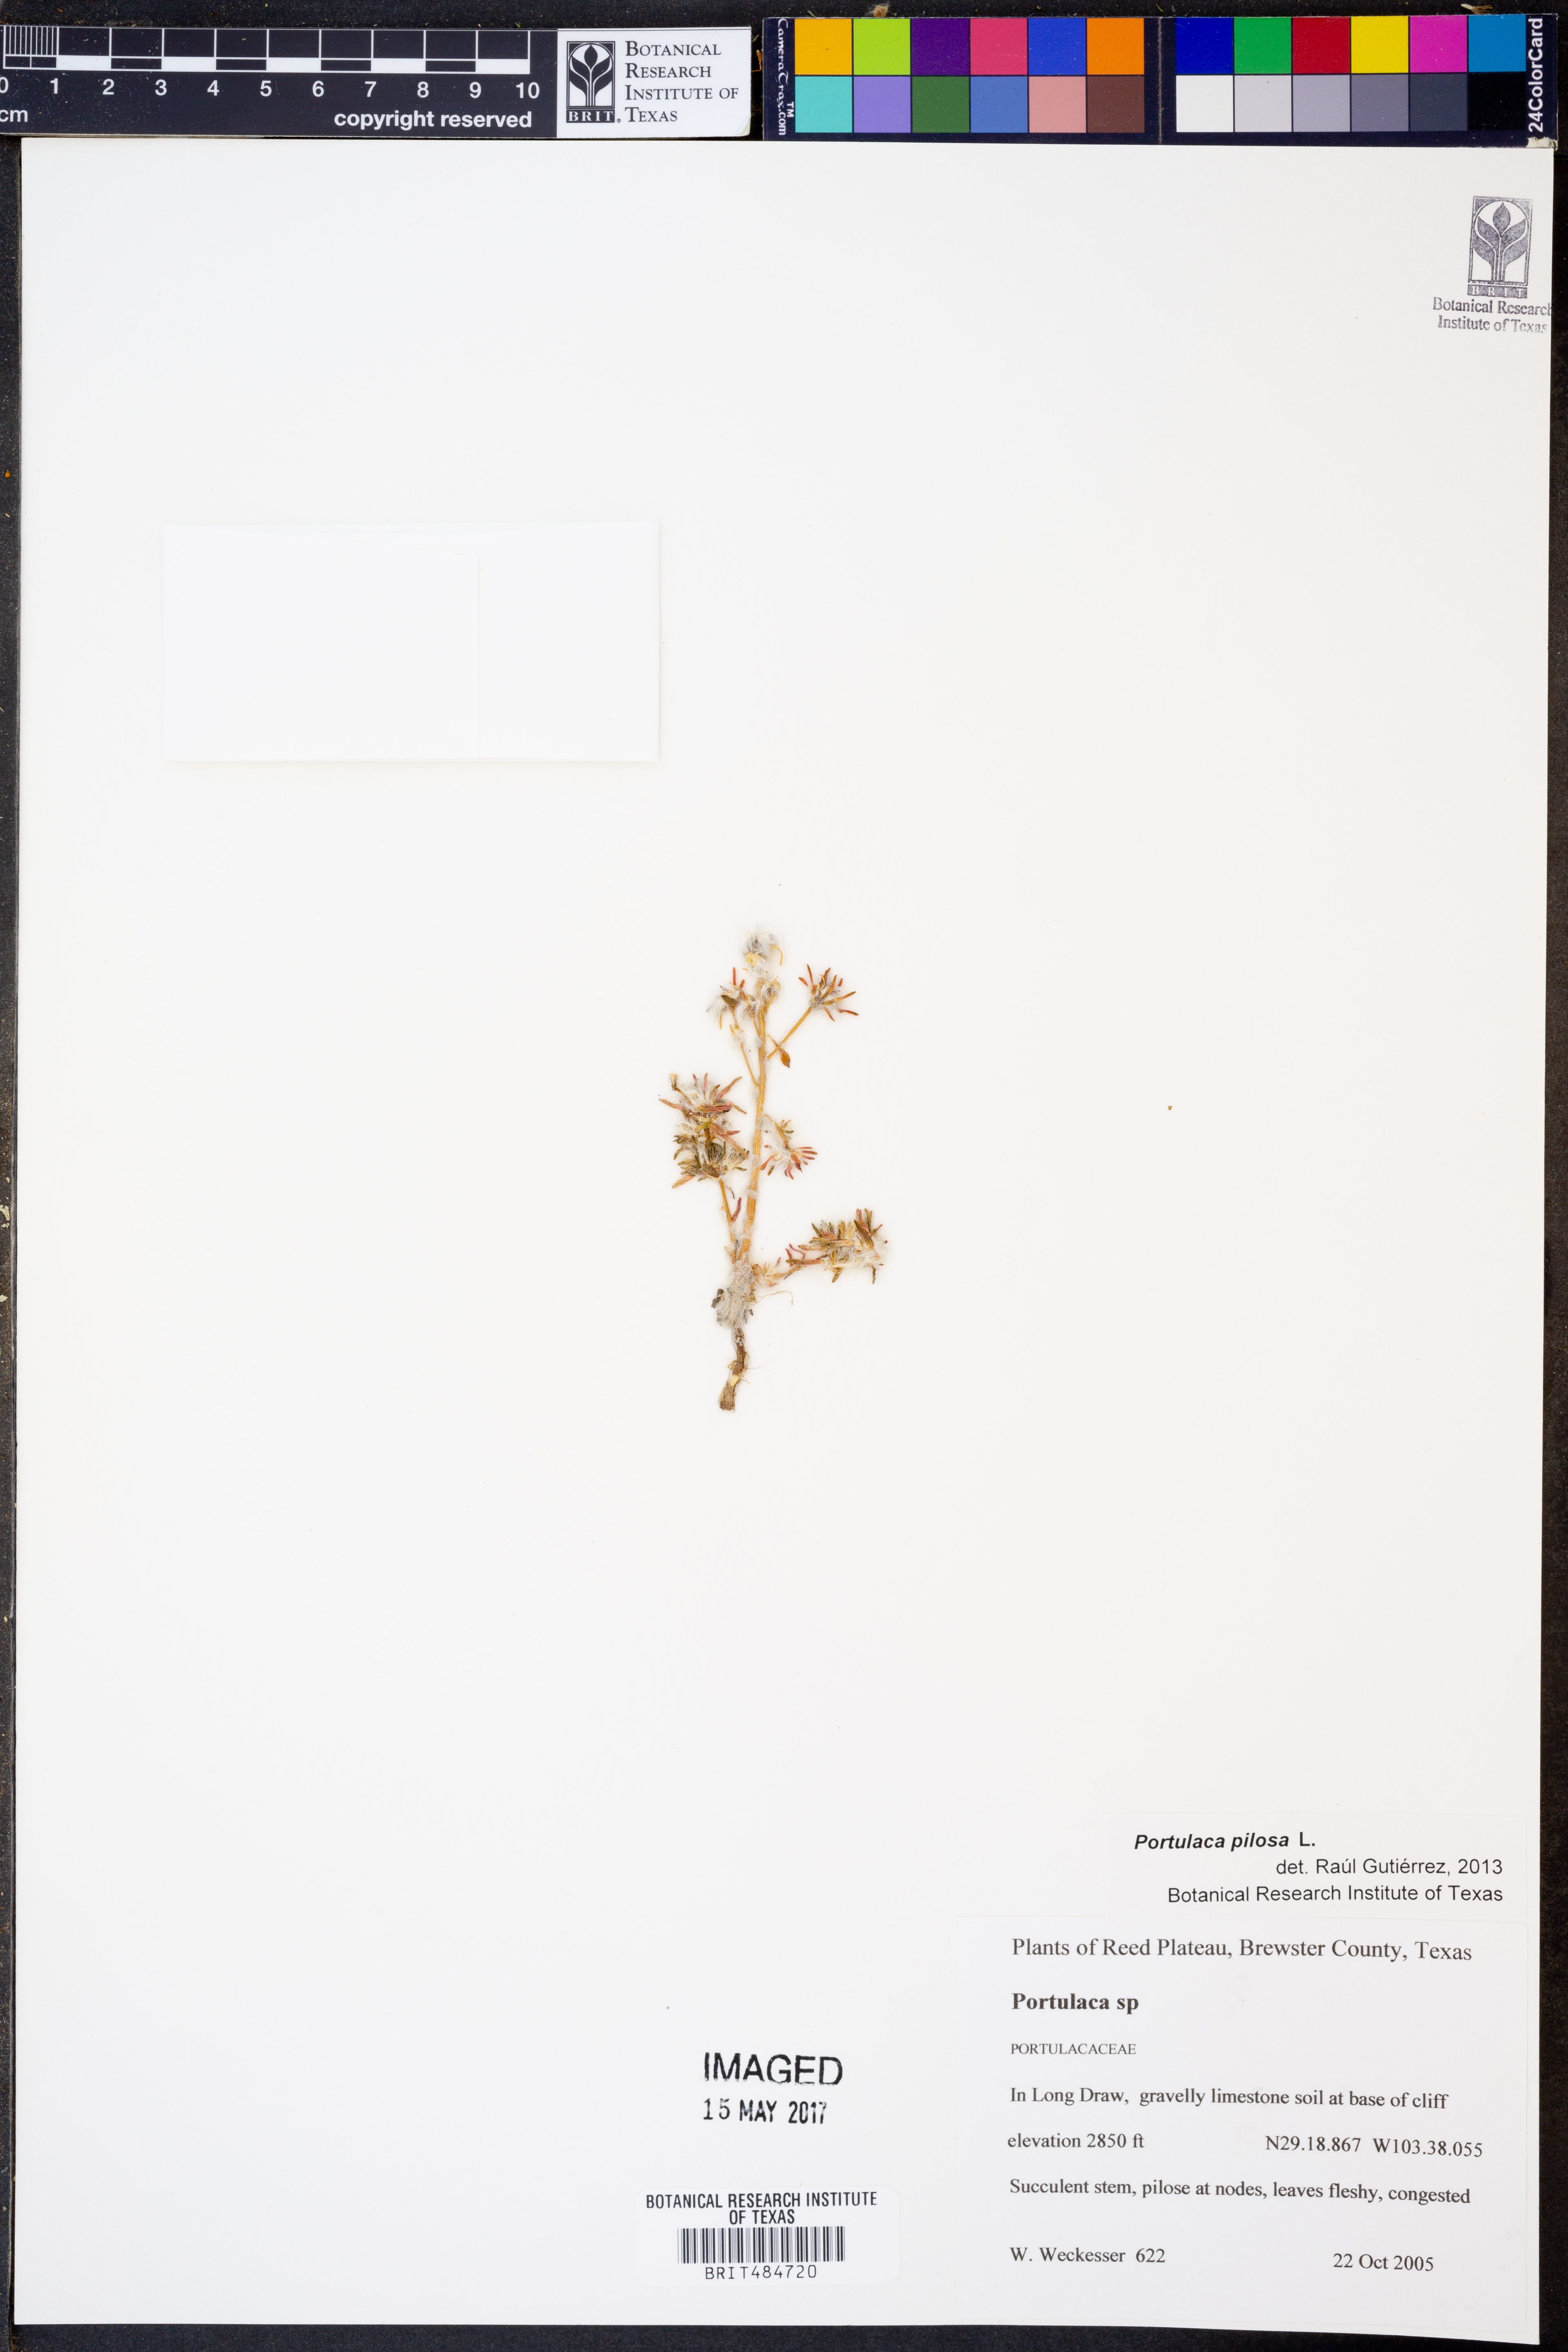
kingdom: Plantae
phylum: Tracheophyta
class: Magnoliopsida
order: Caryophyllales
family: Portulacaceae
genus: Portulaca
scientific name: Portulaca pilosa
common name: Kiss me quick
